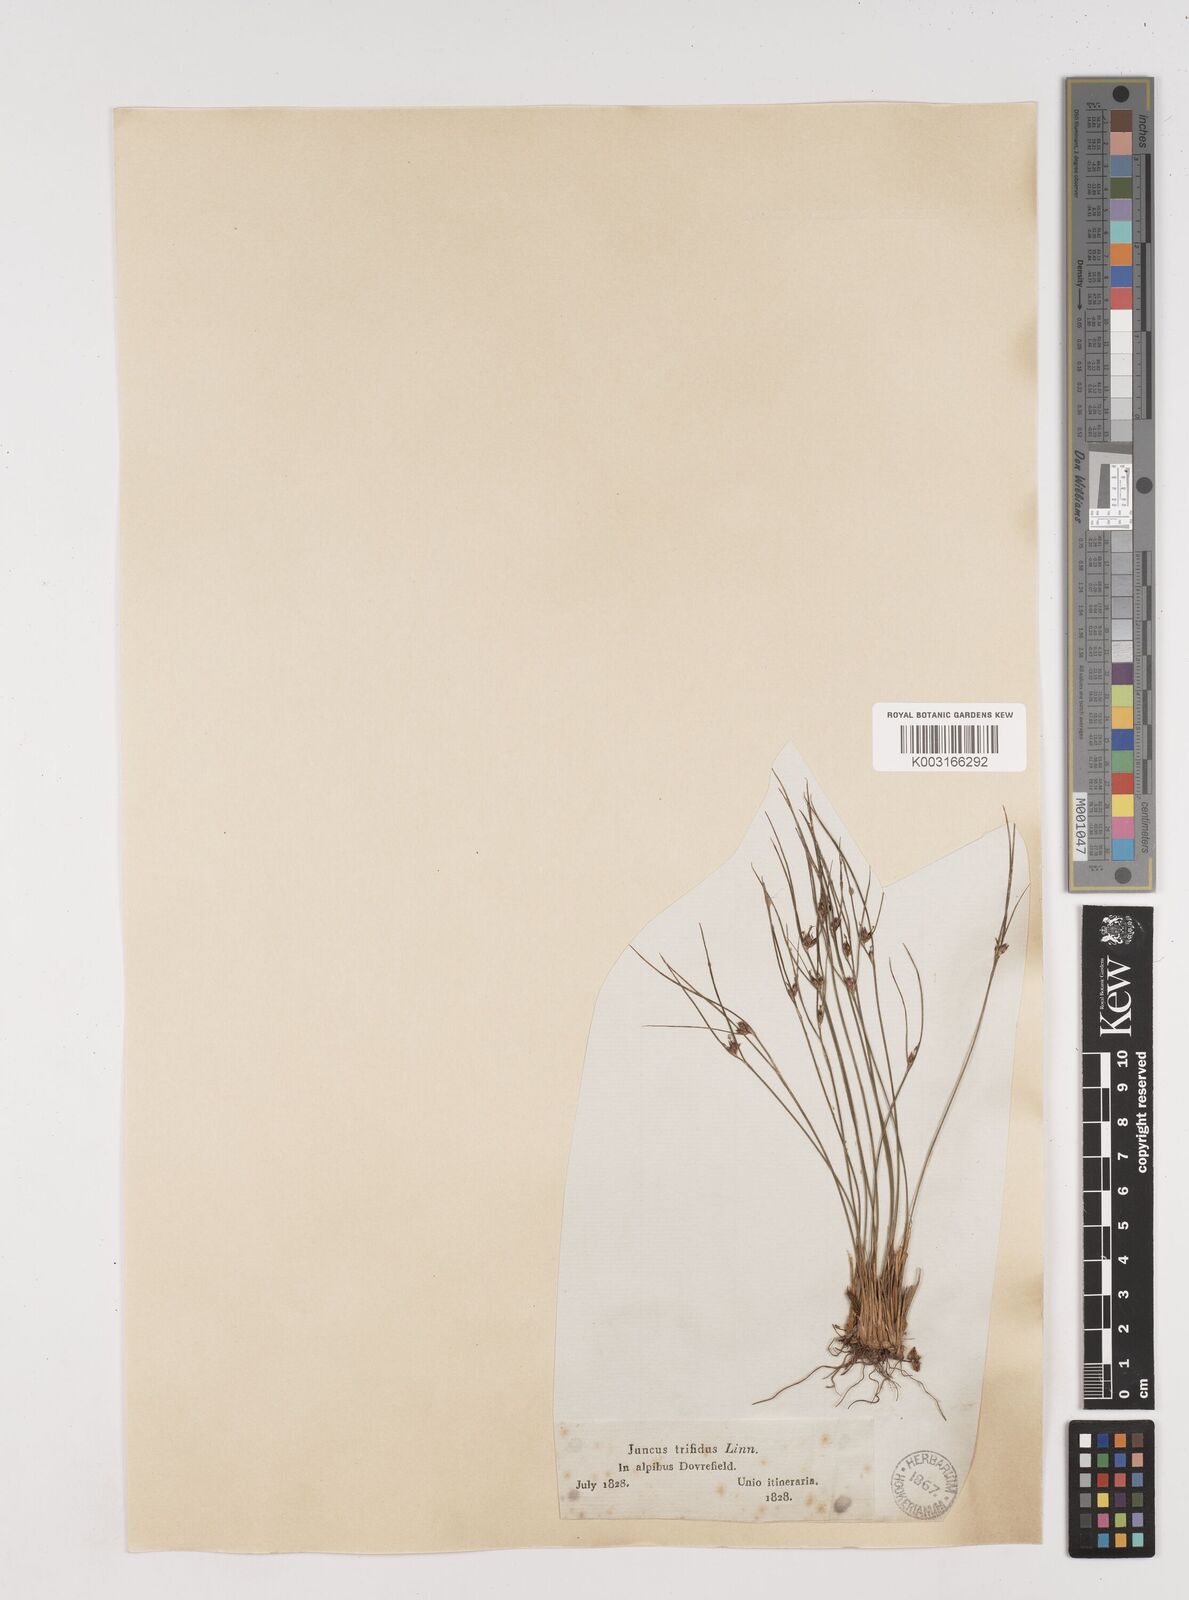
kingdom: Plantae
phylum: Tracheophyta
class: Liliopsida
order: Poales
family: Juncaceae
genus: Oreojuncus
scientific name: Oreojuncus trifidus
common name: Highland rush
